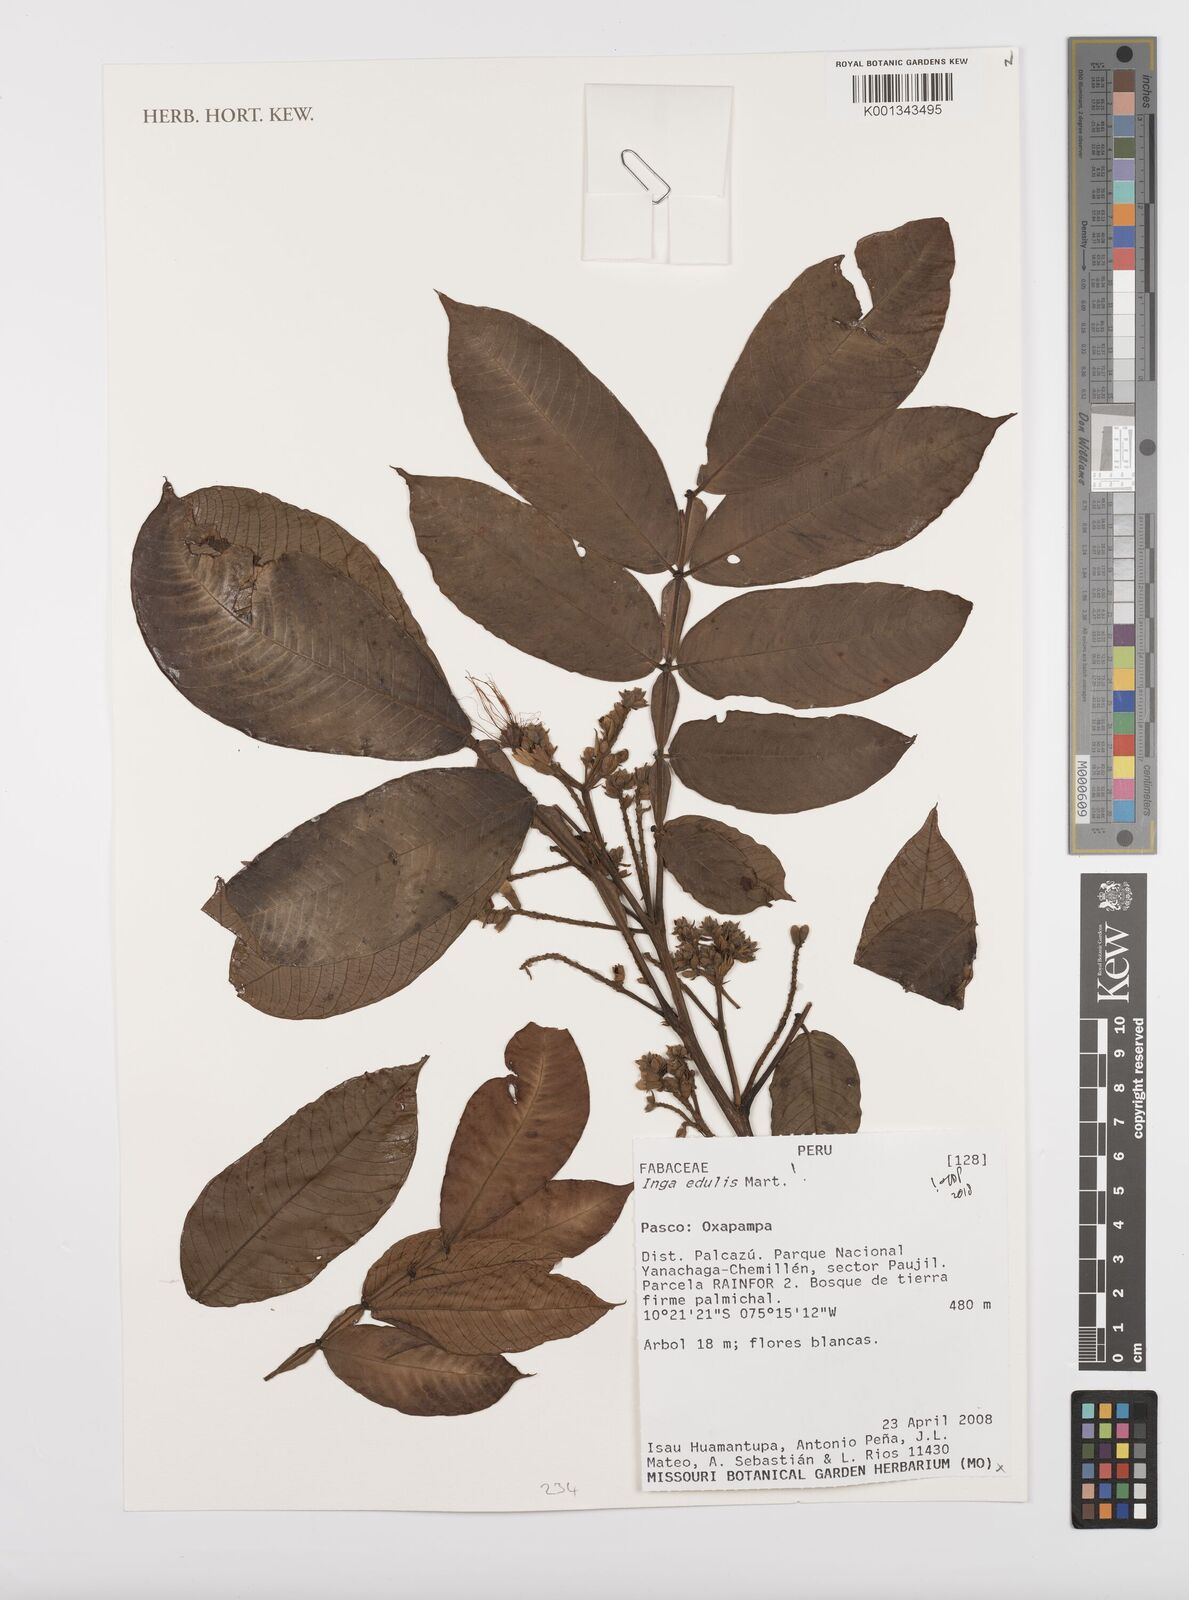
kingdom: Plantae
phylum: Tracheophyta
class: Magnoliopsida
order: Fabales
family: Fabaceae
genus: Inga
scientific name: Inga edulis
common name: Ice cream bean
